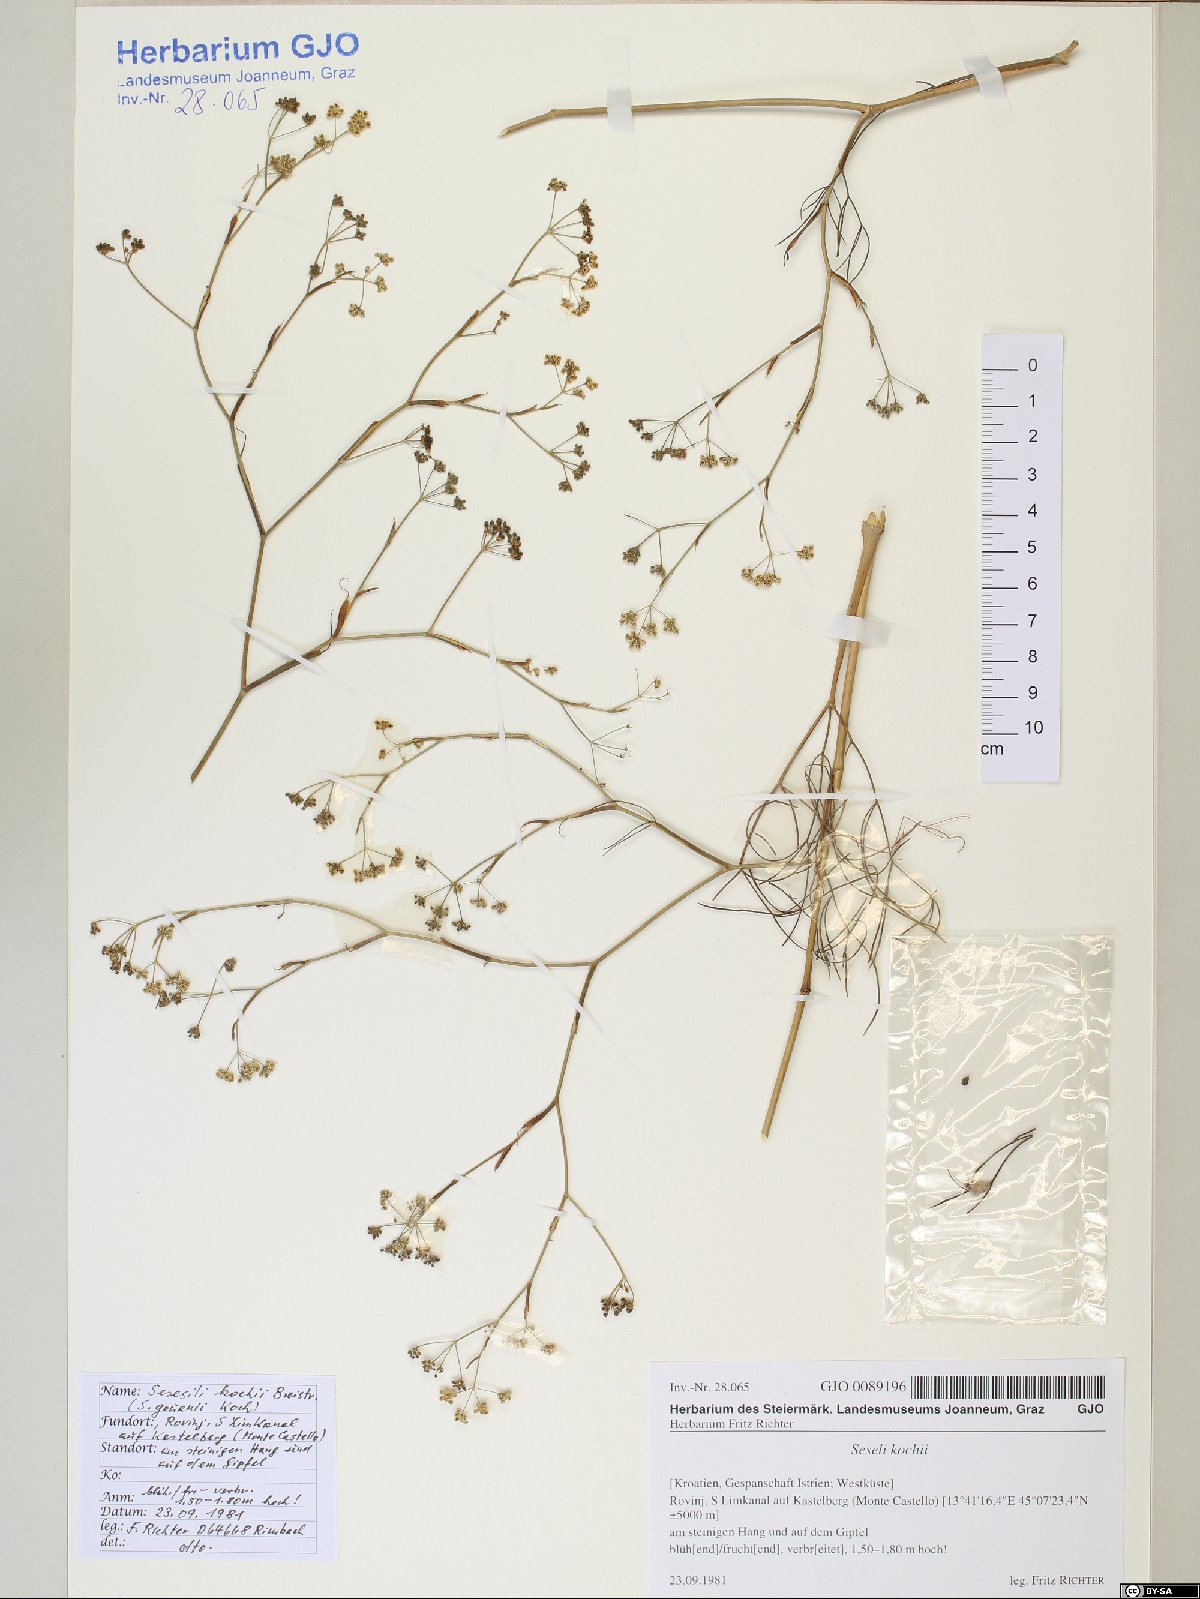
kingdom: Plantae
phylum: Tracheophyta
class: Magnoliopsida
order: Apiales
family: Apiaceae
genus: Seseli
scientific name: Seseli gouanii
